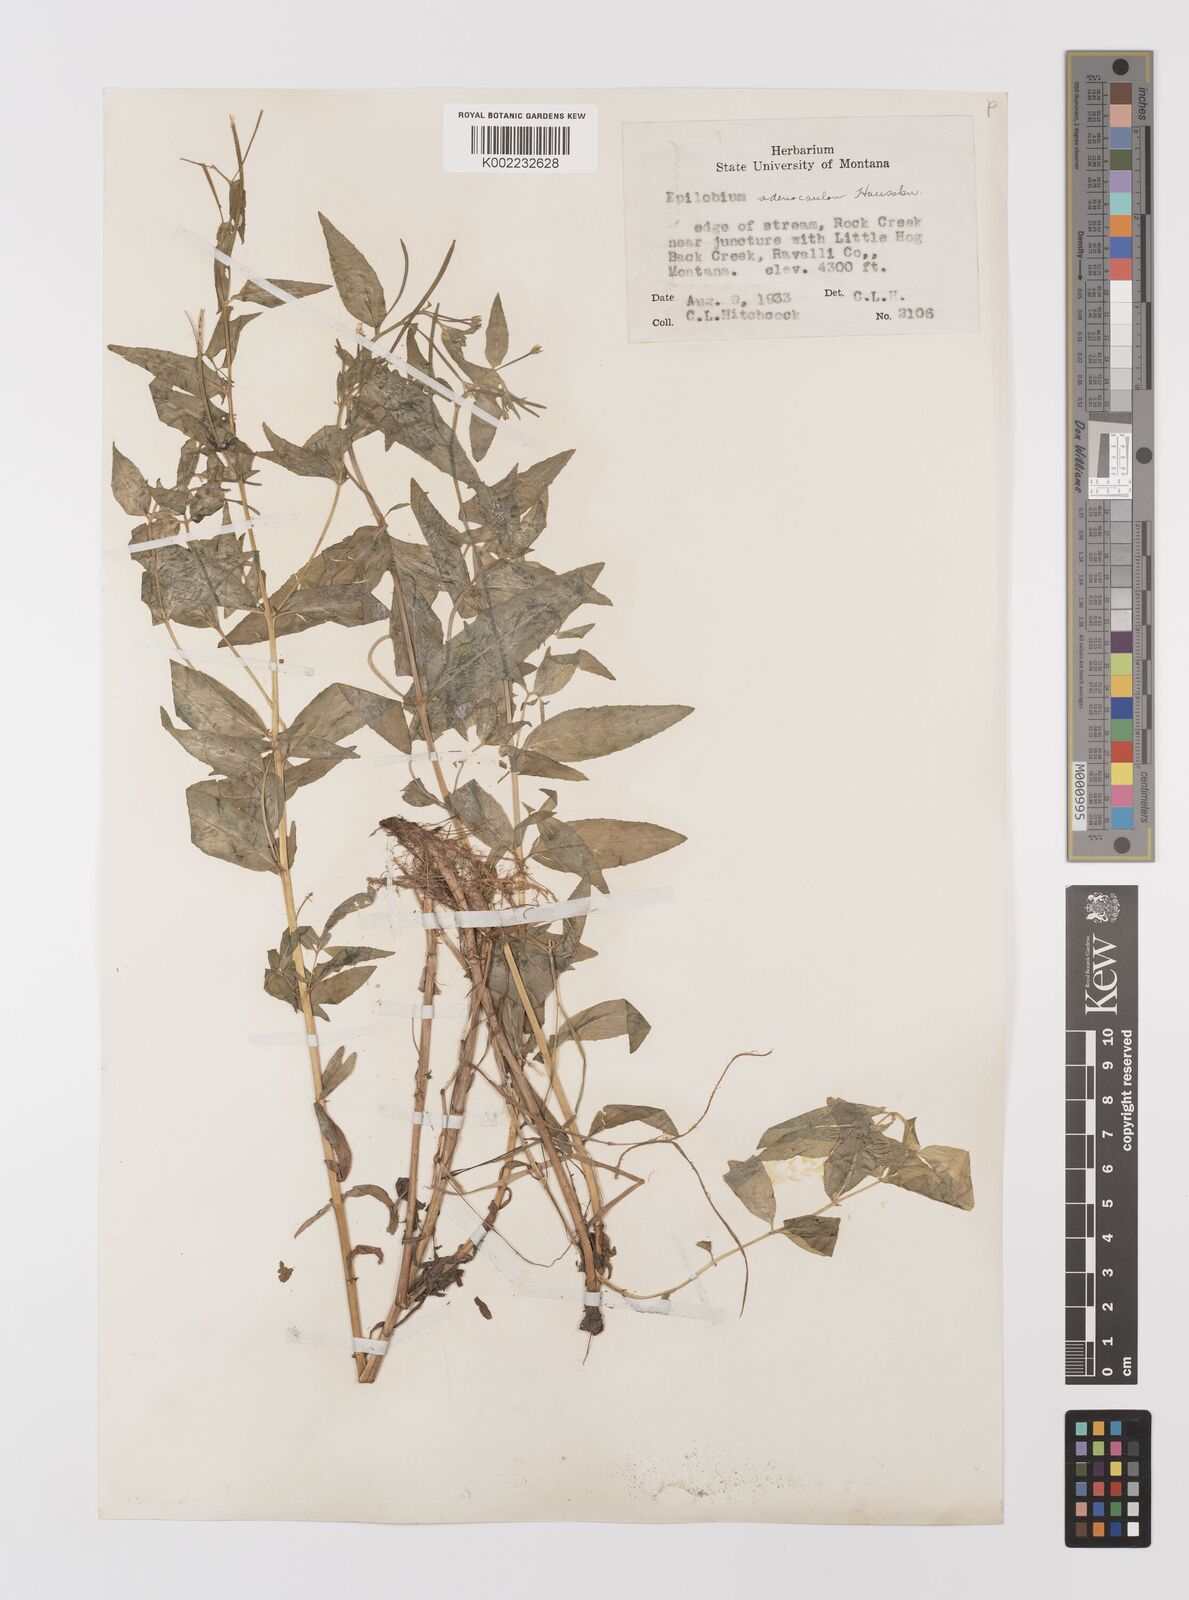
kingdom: Plantae
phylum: Tracheophyta
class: Magnoliopsida
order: Myrtales
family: Onagraceae
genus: Epilobium
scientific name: Epilobium ciliatum
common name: American willowherb
